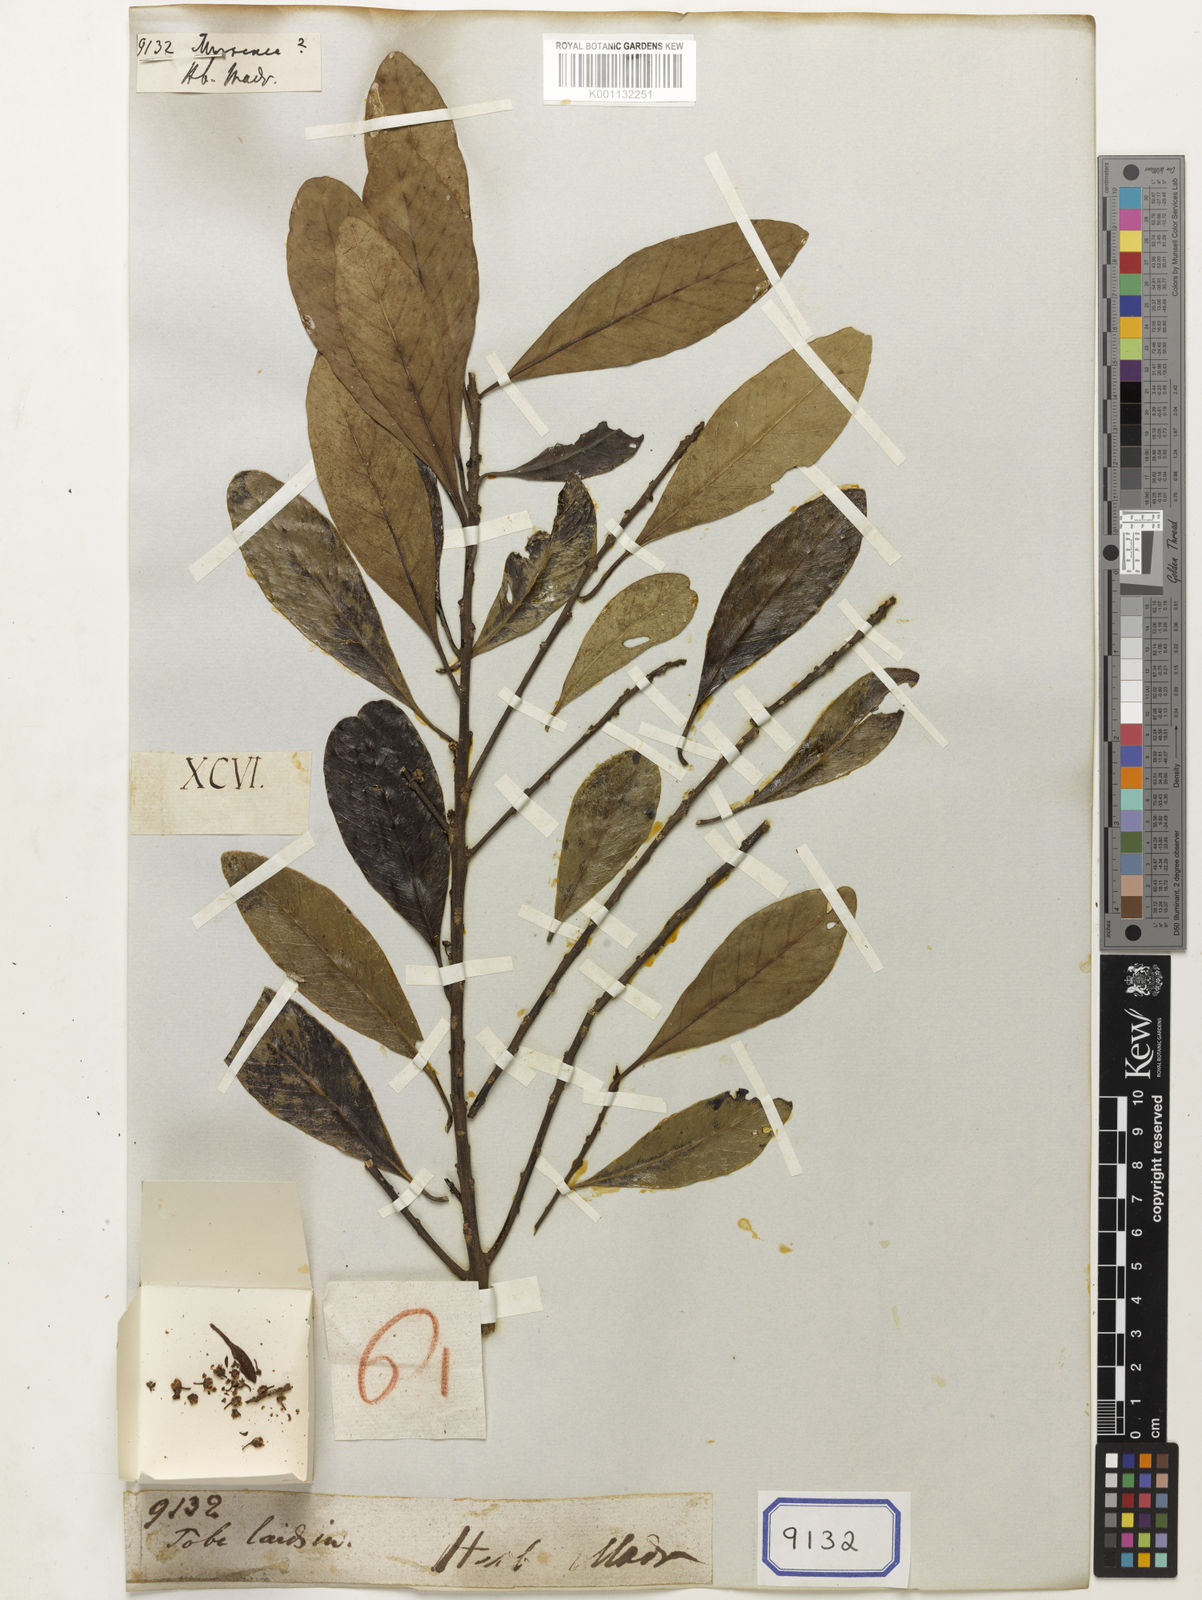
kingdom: Plantae
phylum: Tracheophyta
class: Magnoliopsida
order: Ericales
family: Primulaceae
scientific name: Primulaceae
